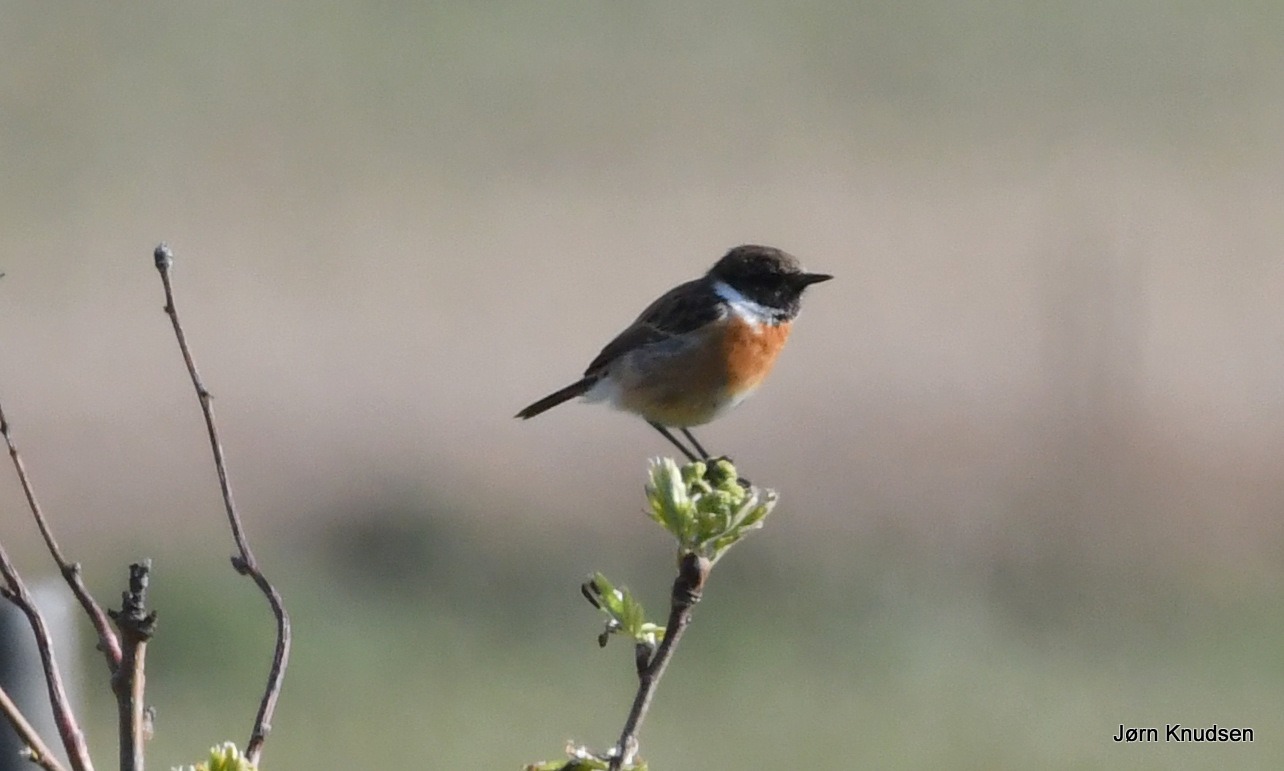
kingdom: Animalia
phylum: Chordata
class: Aves
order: Passeriformes
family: Muscicapidae
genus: Saxicola
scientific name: Saxicola rubicola
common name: Sortstrubet bynkefugl
